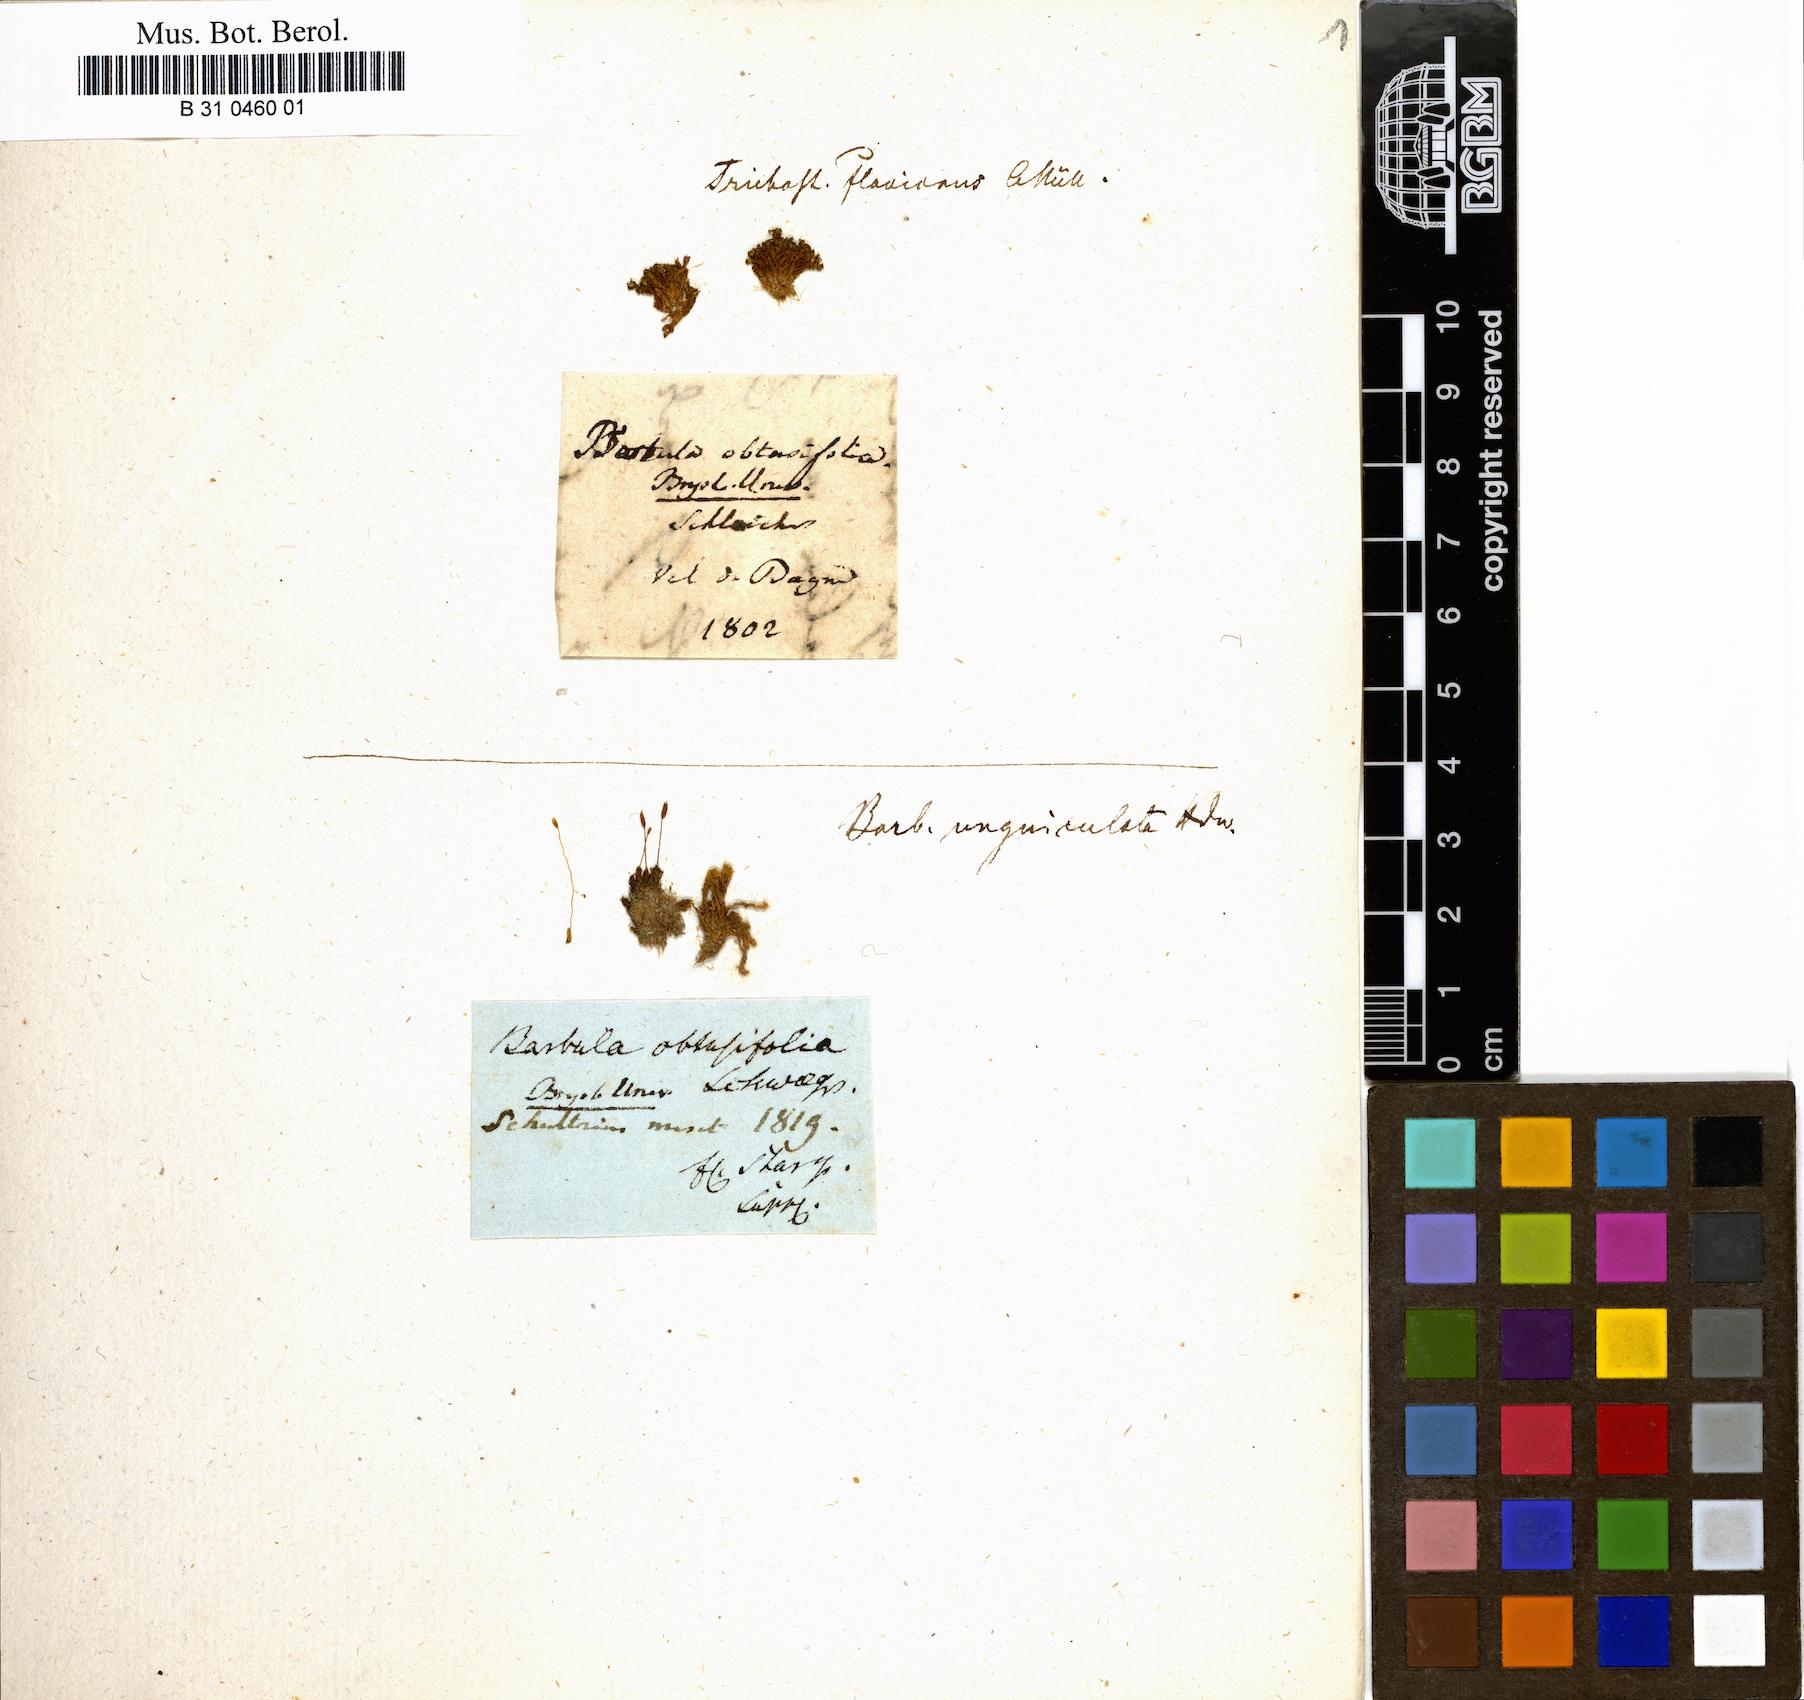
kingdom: Plantae
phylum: Bryophyta
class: Bryopsida
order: Pottiales
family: Pottiaceae
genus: Tortula
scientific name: Tortula obtusifolia
